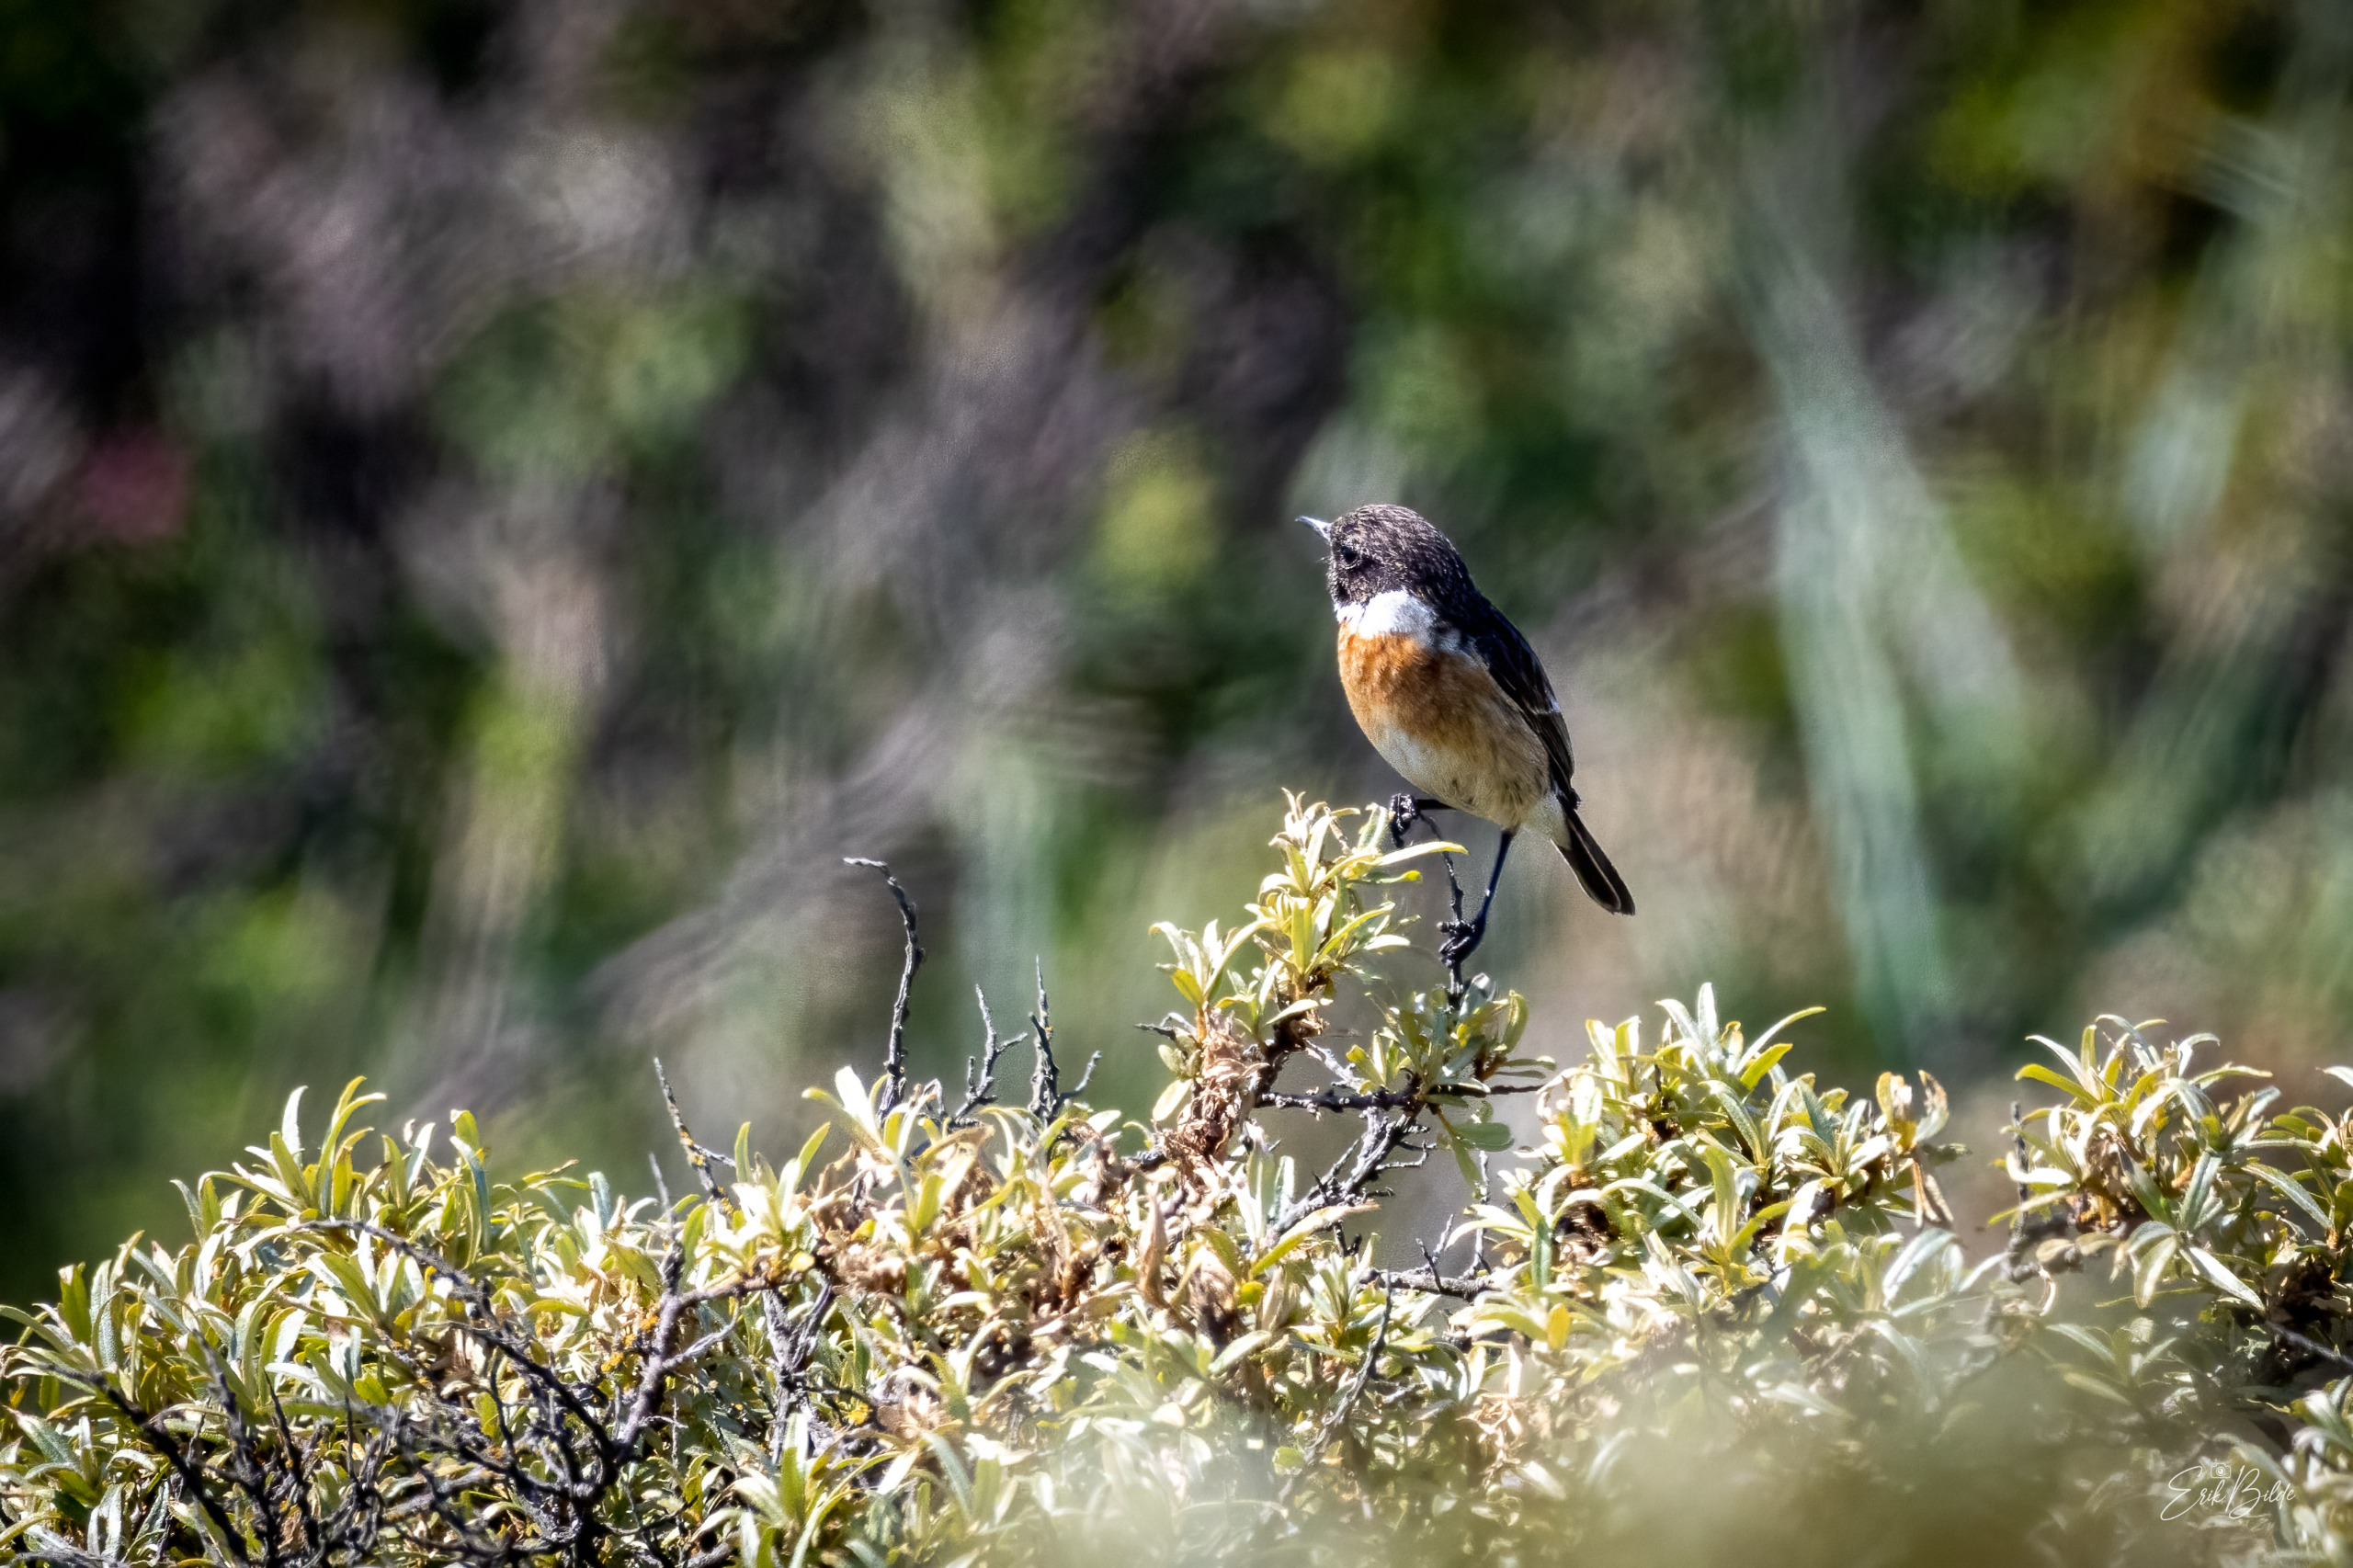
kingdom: Animalia
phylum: Chordata
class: Aves
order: Passeriformes
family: Muscicapidae
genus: Saxicola
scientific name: Saxicola rubicola
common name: Sortstrubet bynkefugl
